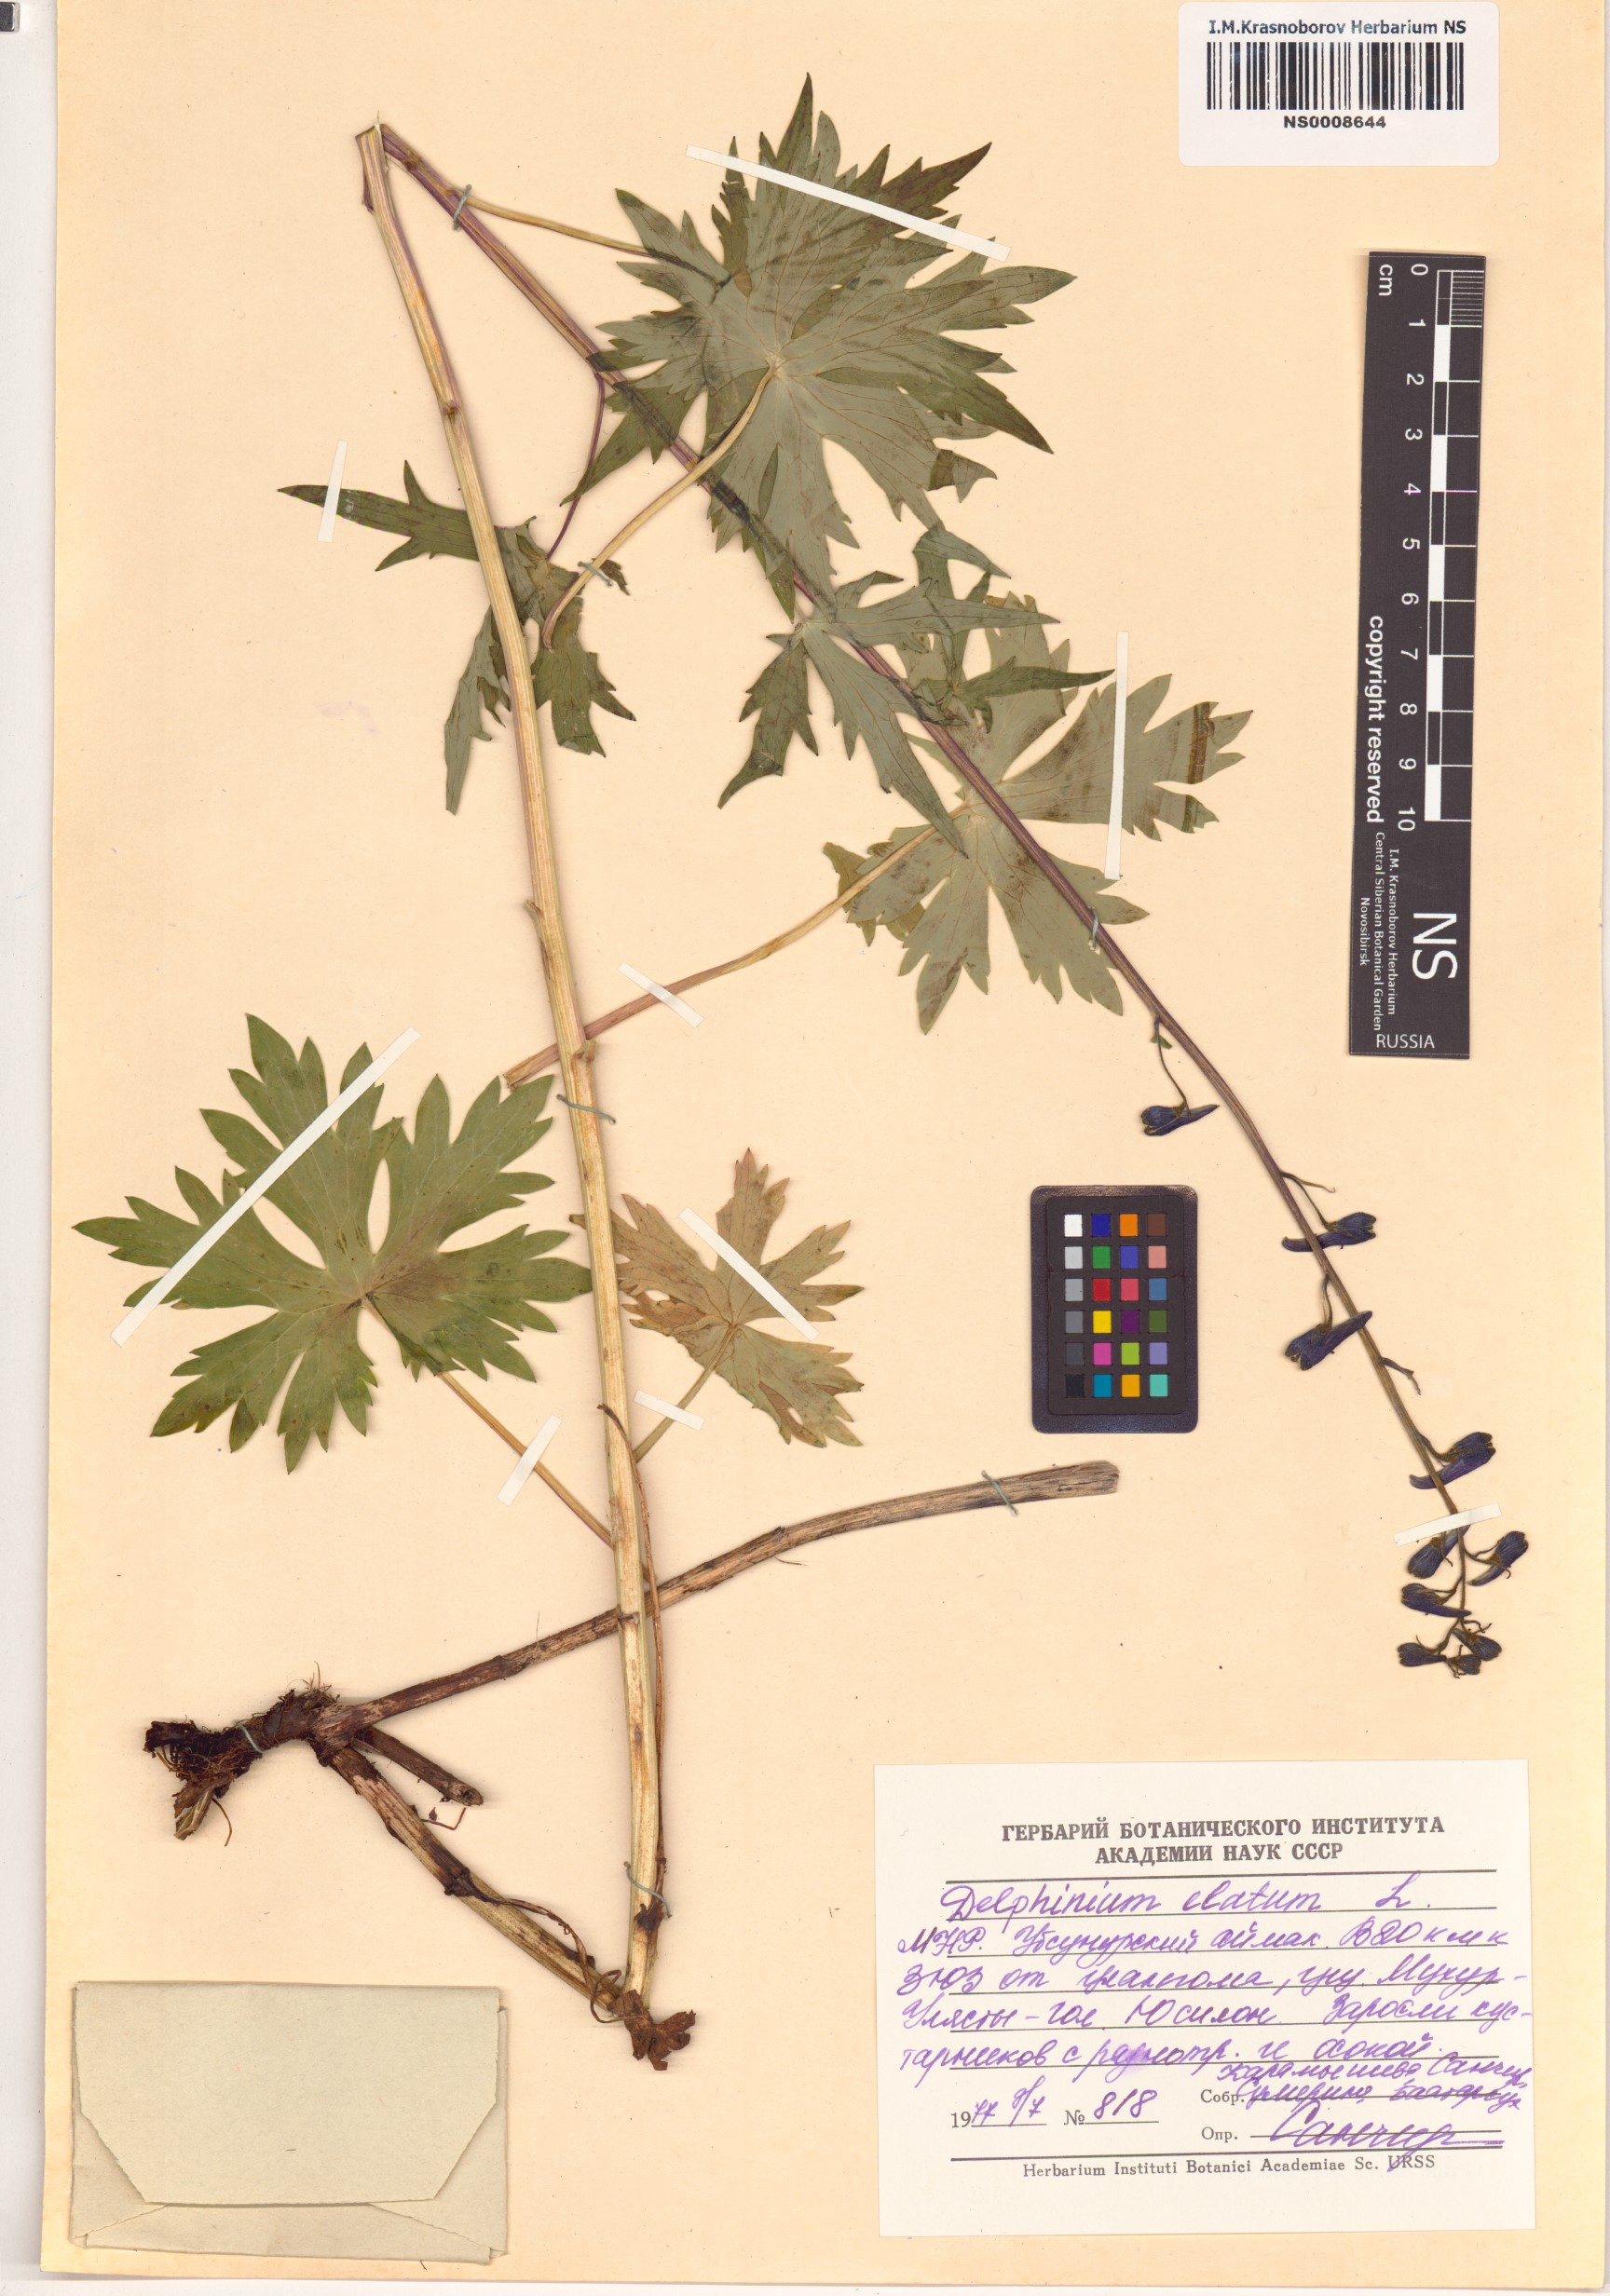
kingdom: Plantae
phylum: Tracheophyta
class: Magnoliopsida
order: Ranunculales
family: Ranunculaceae
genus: Delphinium
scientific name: Delphinium elatum
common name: Candle larkspur
